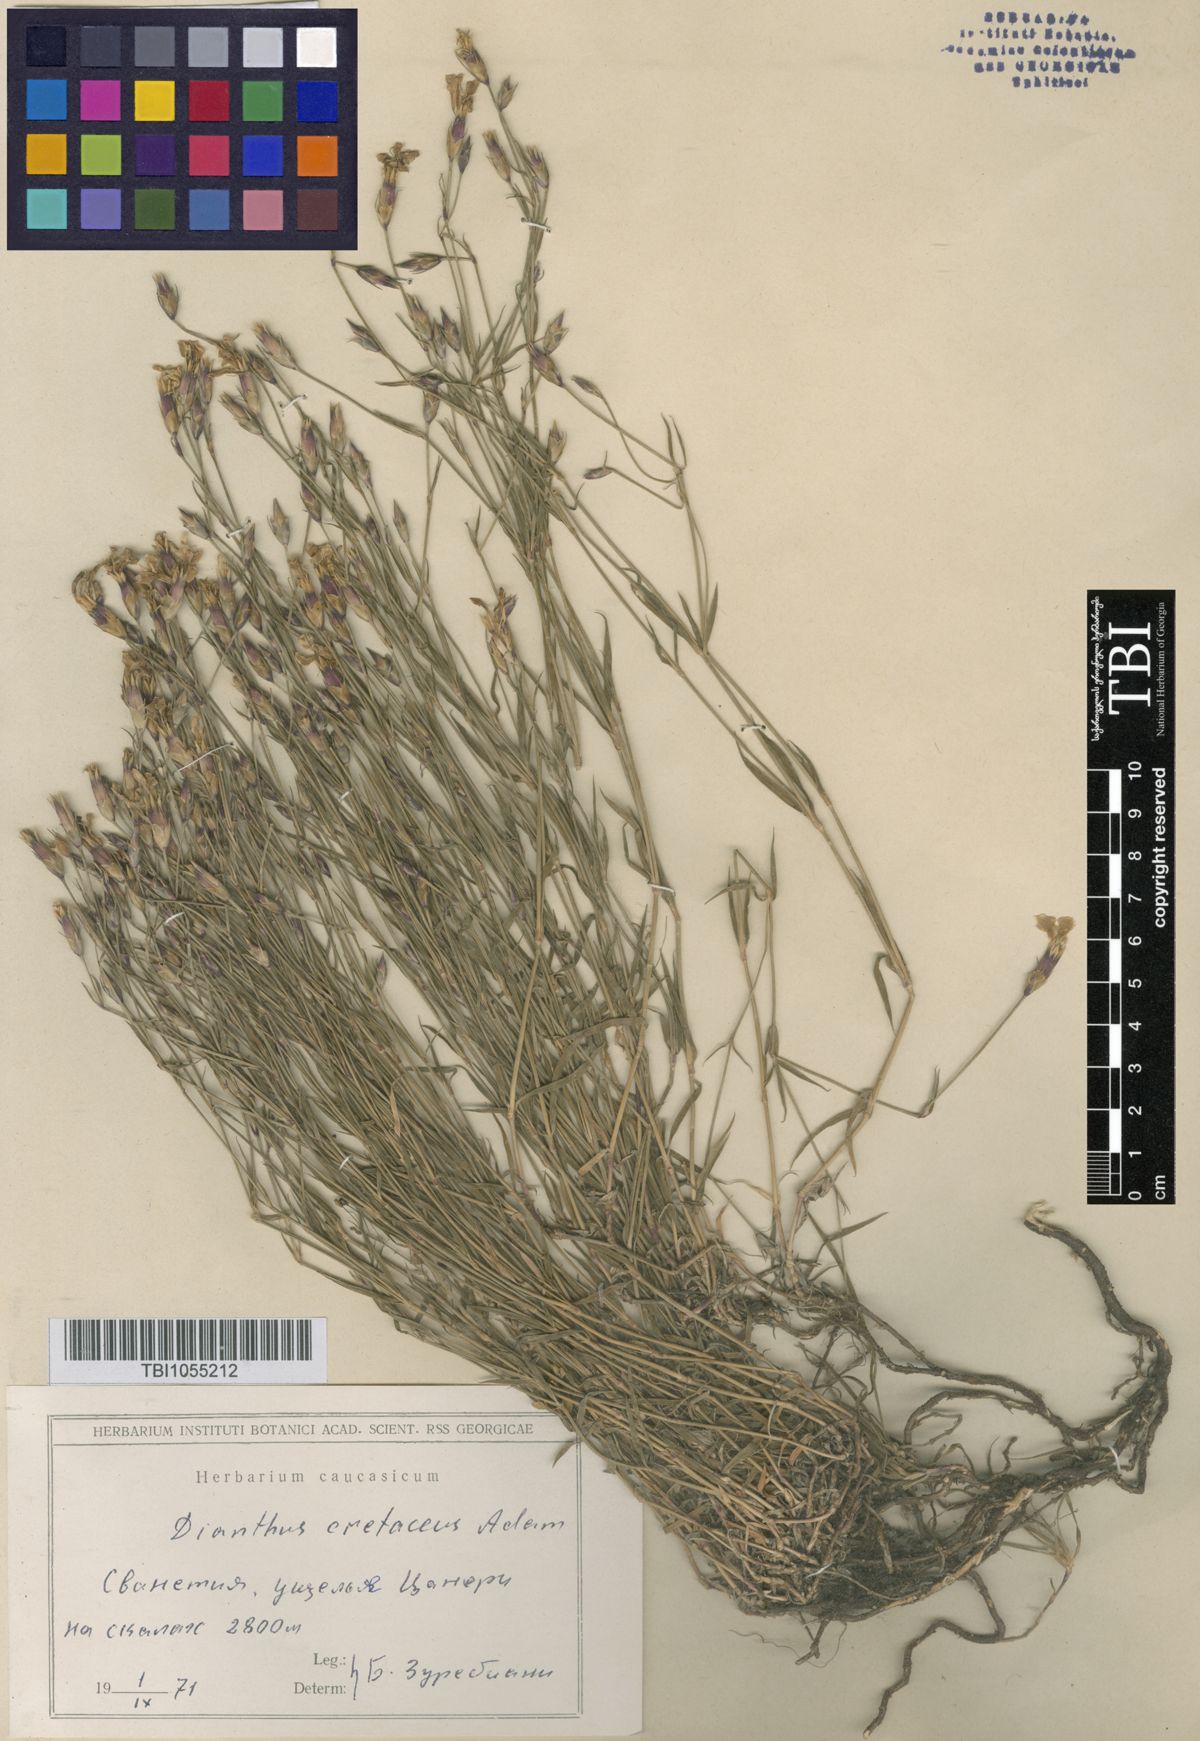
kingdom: Plantae
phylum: Tracheophyta
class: Magnoliopsida
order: Caryophyllales
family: Caryophyllaceae
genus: Dianthus
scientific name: Dianthus cretaceus
